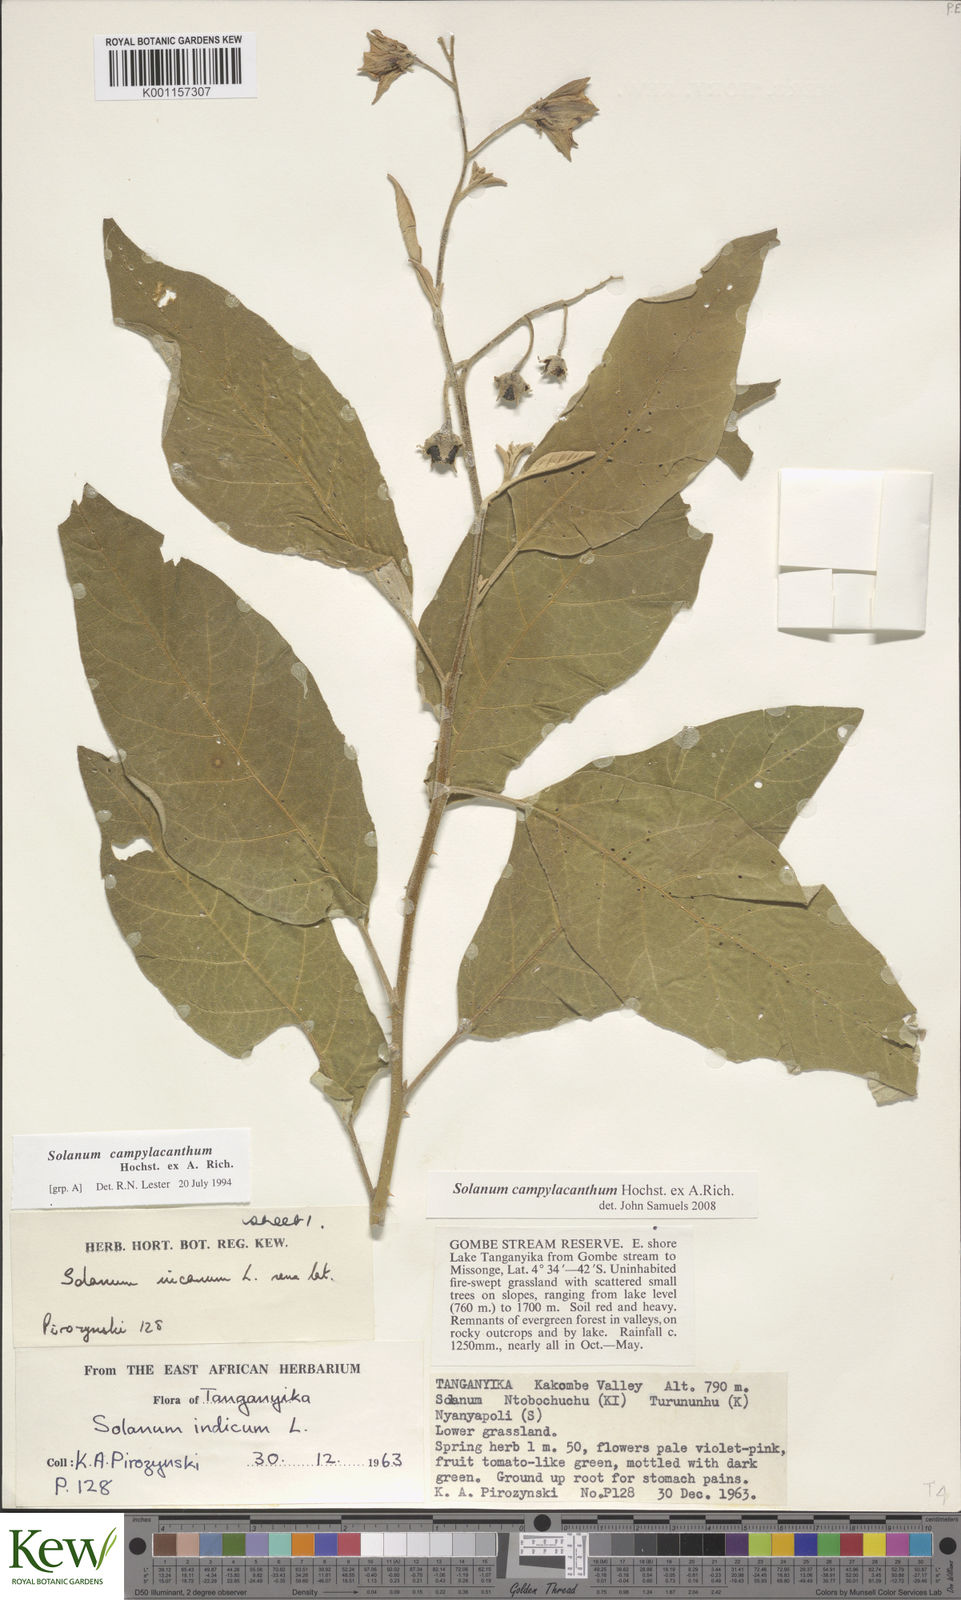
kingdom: Plantae
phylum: Tracheophyta
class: Magnoliopsida
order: Solanales
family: Solanaceae
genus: Solanum
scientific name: Solanum campylacanthum
